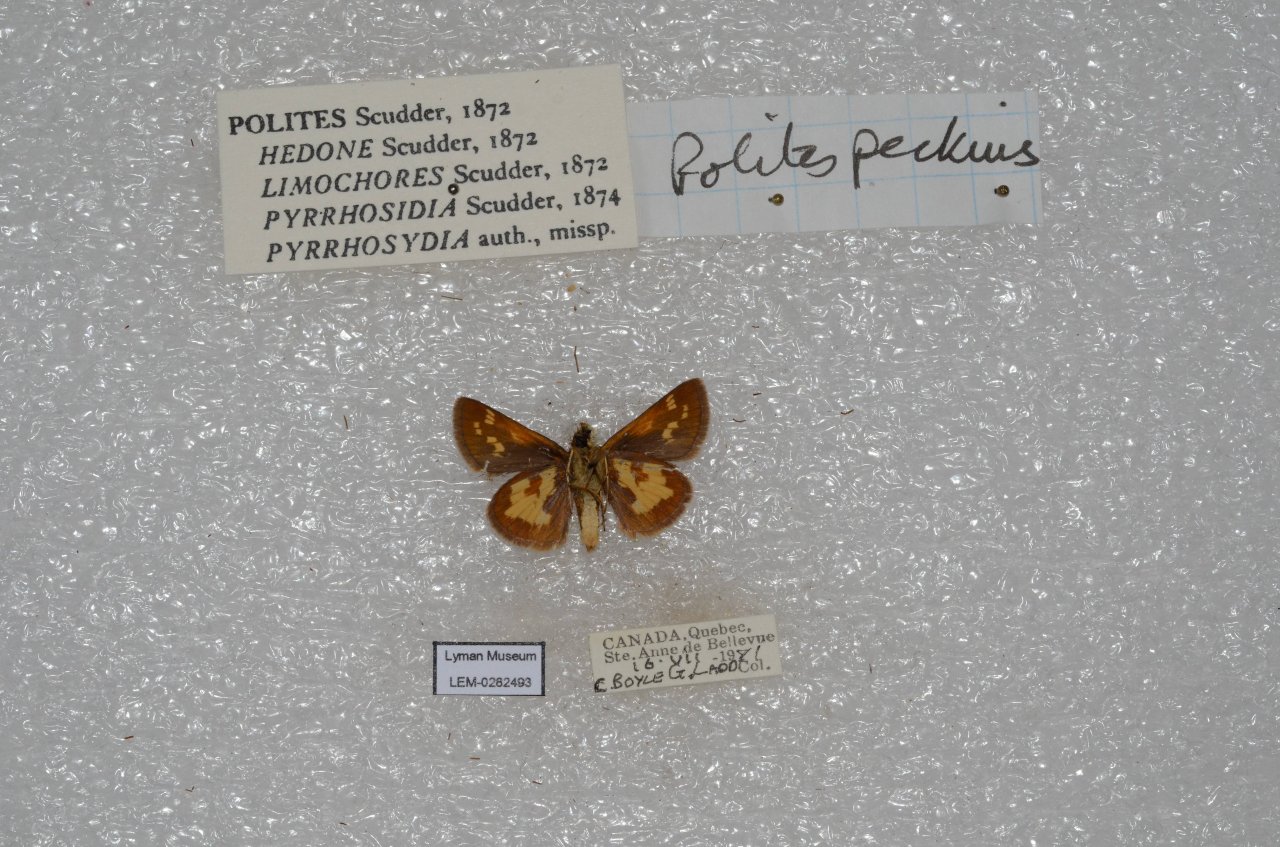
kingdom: Animalia
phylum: Arthropoda
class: Insecta
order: Lepidoptera
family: Hesperiidae
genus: Polites
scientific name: Polites coras
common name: Peck's Skipper
